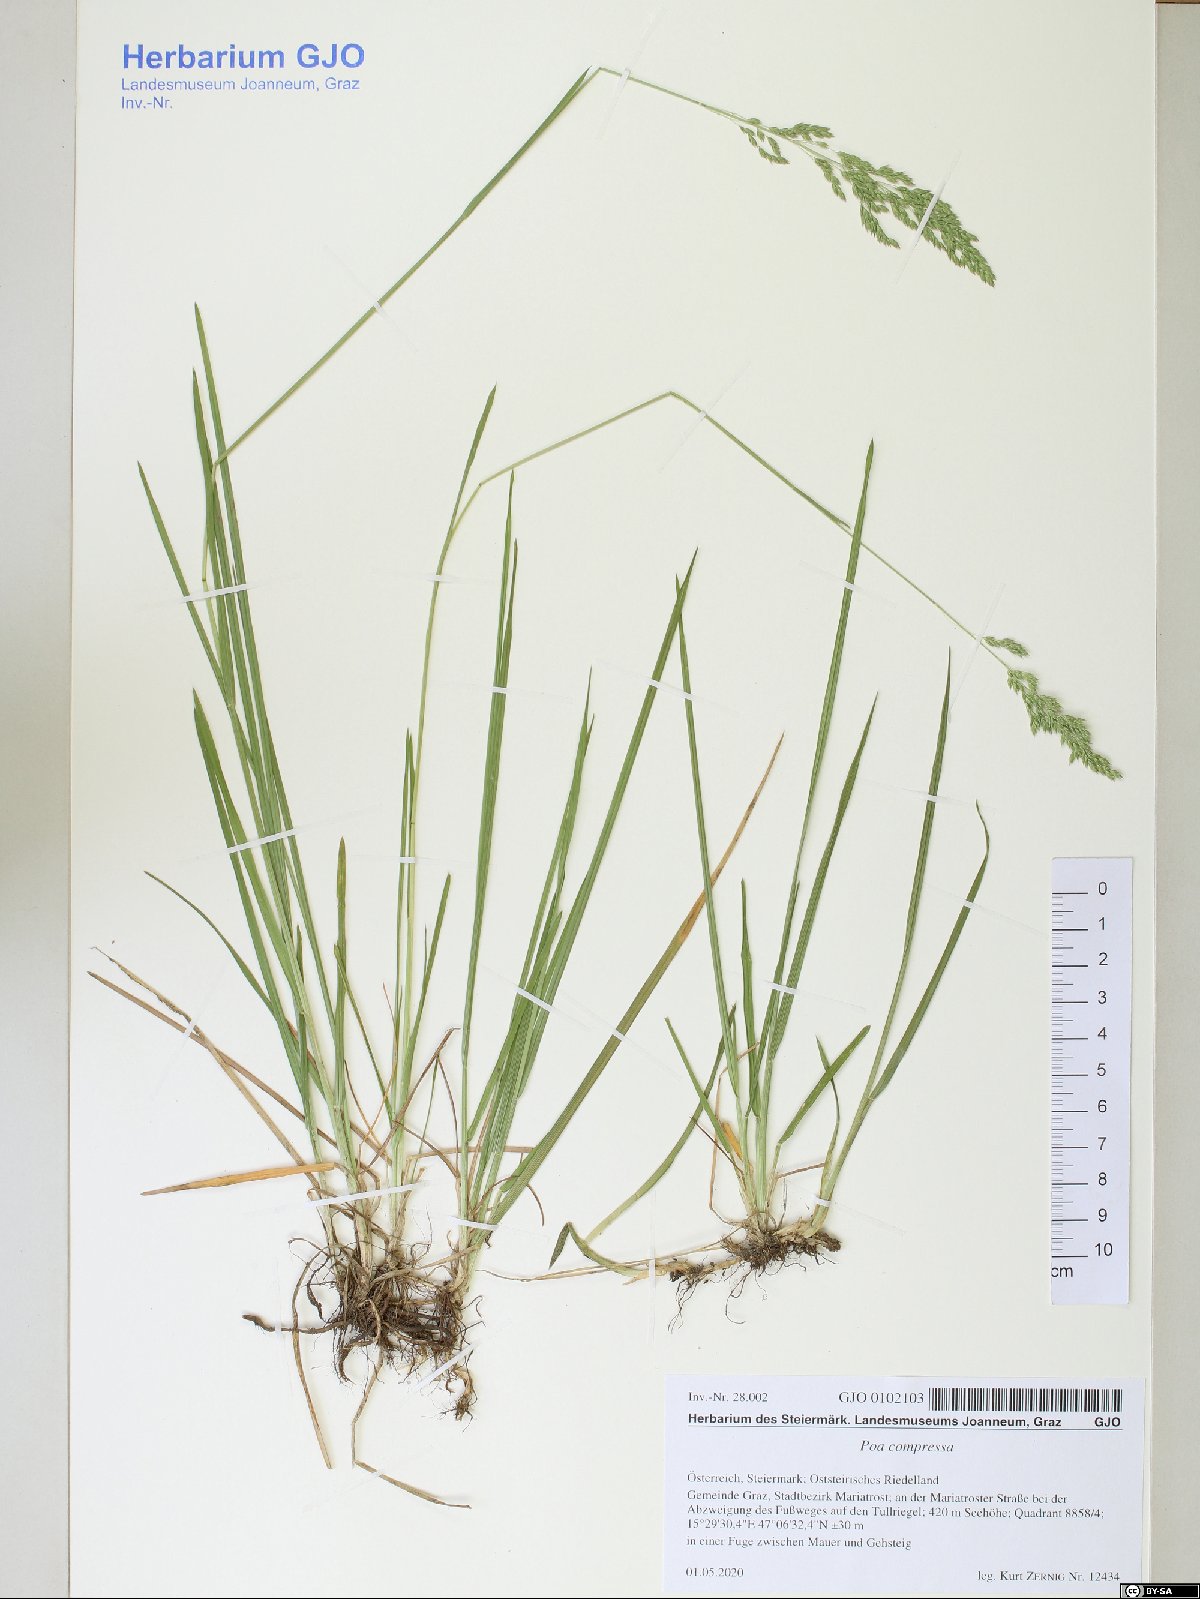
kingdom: Plantae
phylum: Tracheophyta
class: Liliopsida
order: Poales
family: Poaceae
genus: Poa
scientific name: Poa compressa
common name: Canada bluegrass
